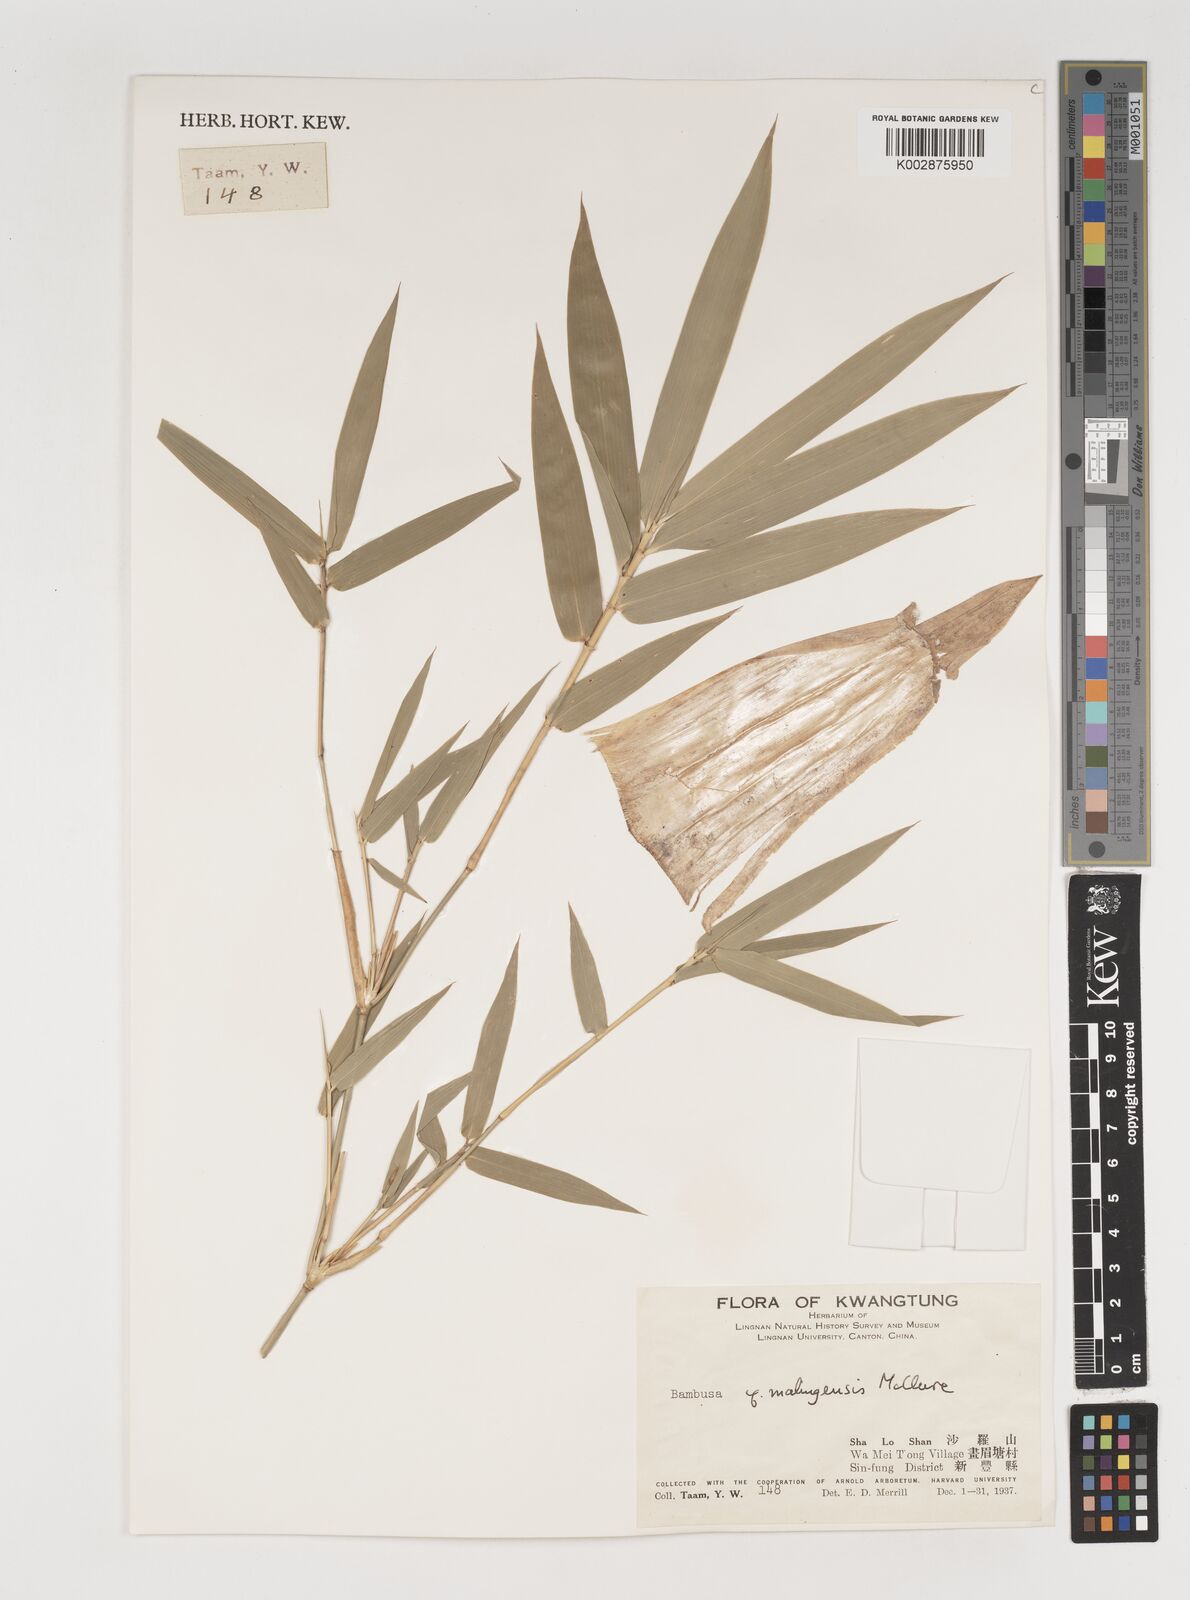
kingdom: Plantae
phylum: Tracheophyta
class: Liliopsida
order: Poales
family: Poaceae
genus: Bambusa
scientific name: Bambusa malingensis
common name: Maling bamboo
